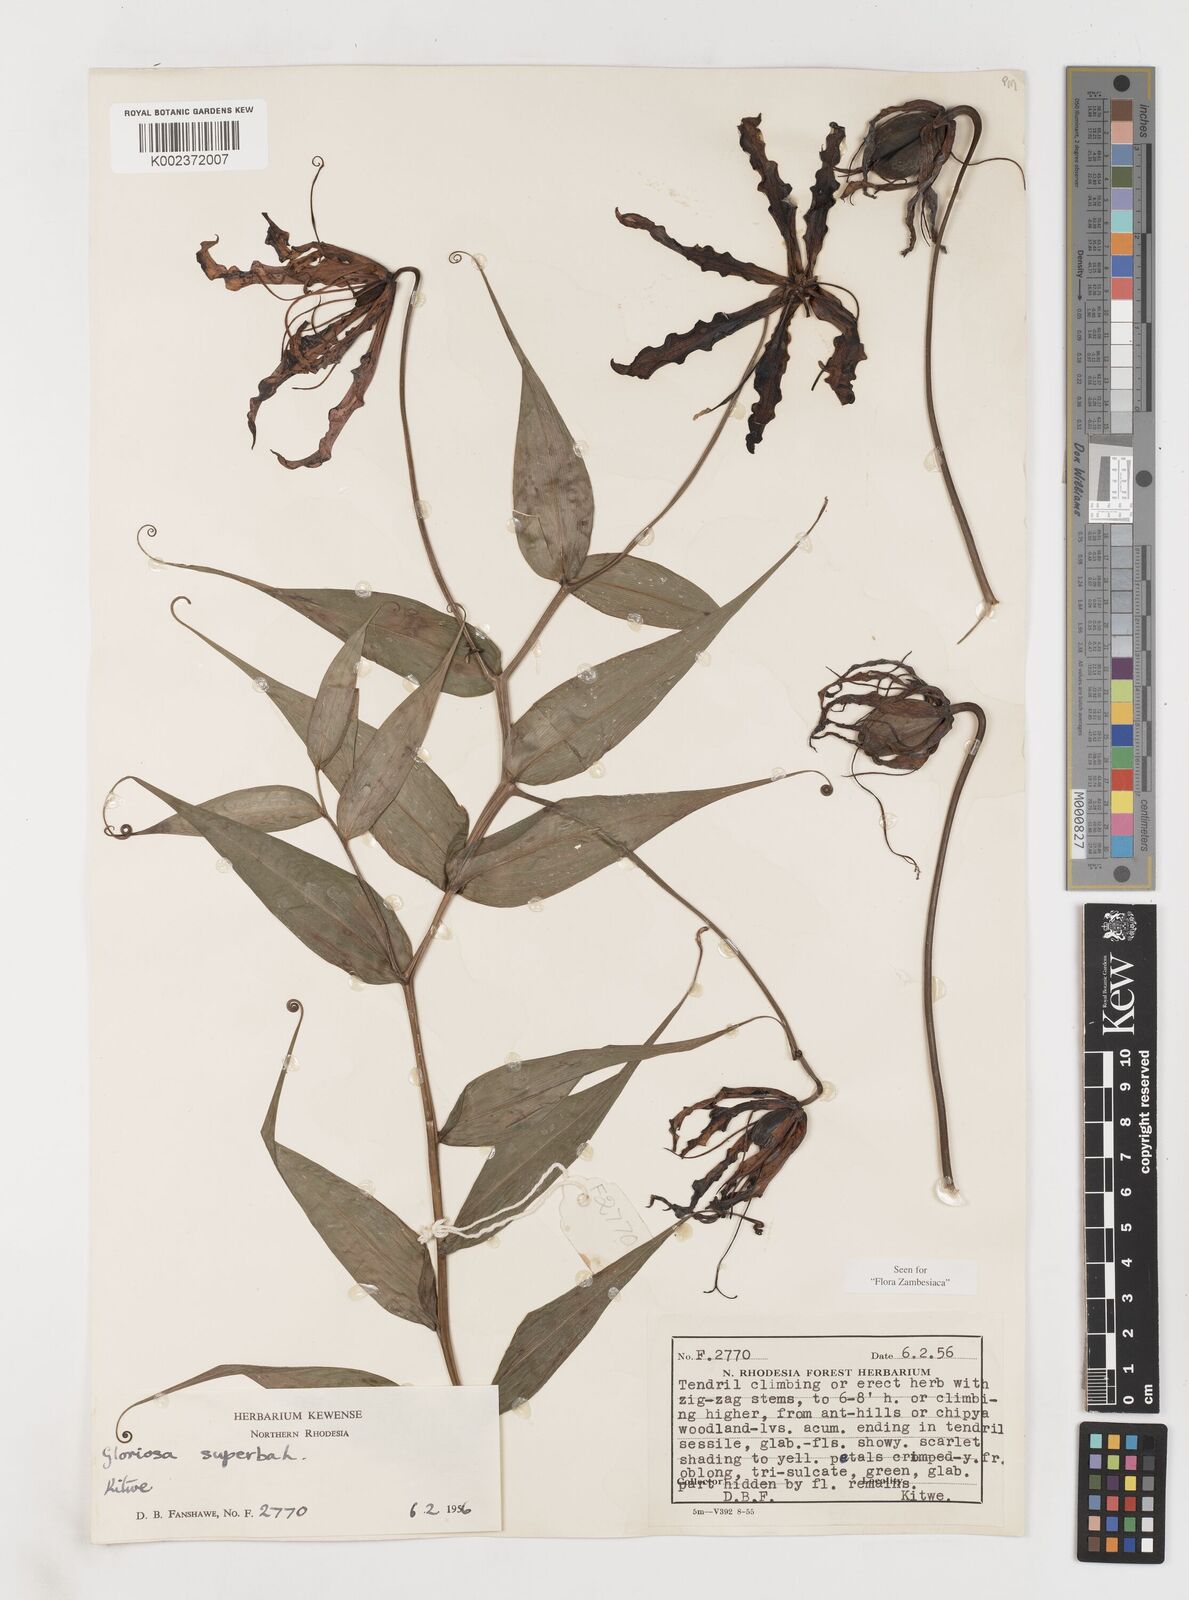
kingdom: Plantae
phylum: Tracheophyta
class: Liliopsida
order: Liliales
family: Colchicaceae
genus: Gloriosa
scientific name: Gloriosa superba
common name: Flame lily
